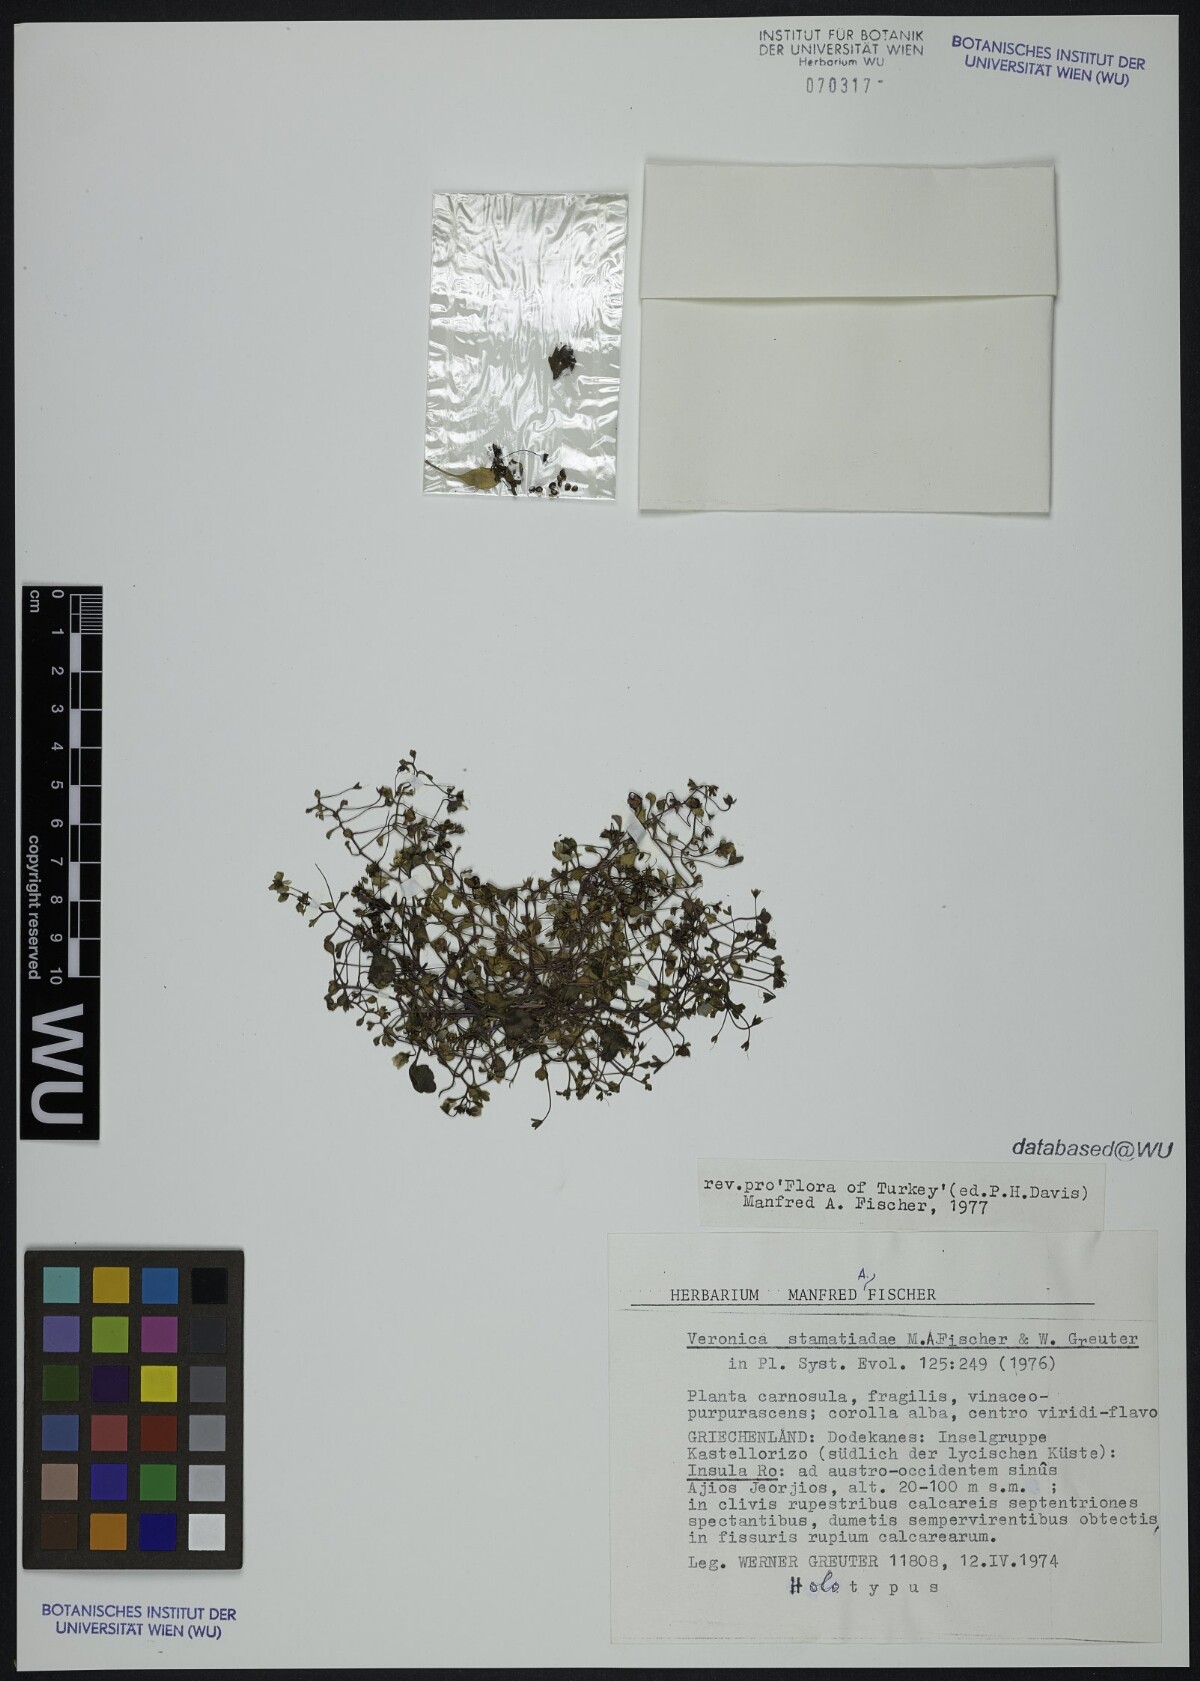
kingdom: Plantae
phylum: Tracheophyta
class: Magnoliopsida
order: Lamiales
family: Plantaginaceae
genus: Veronica
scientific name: Veronica stamatiadae
